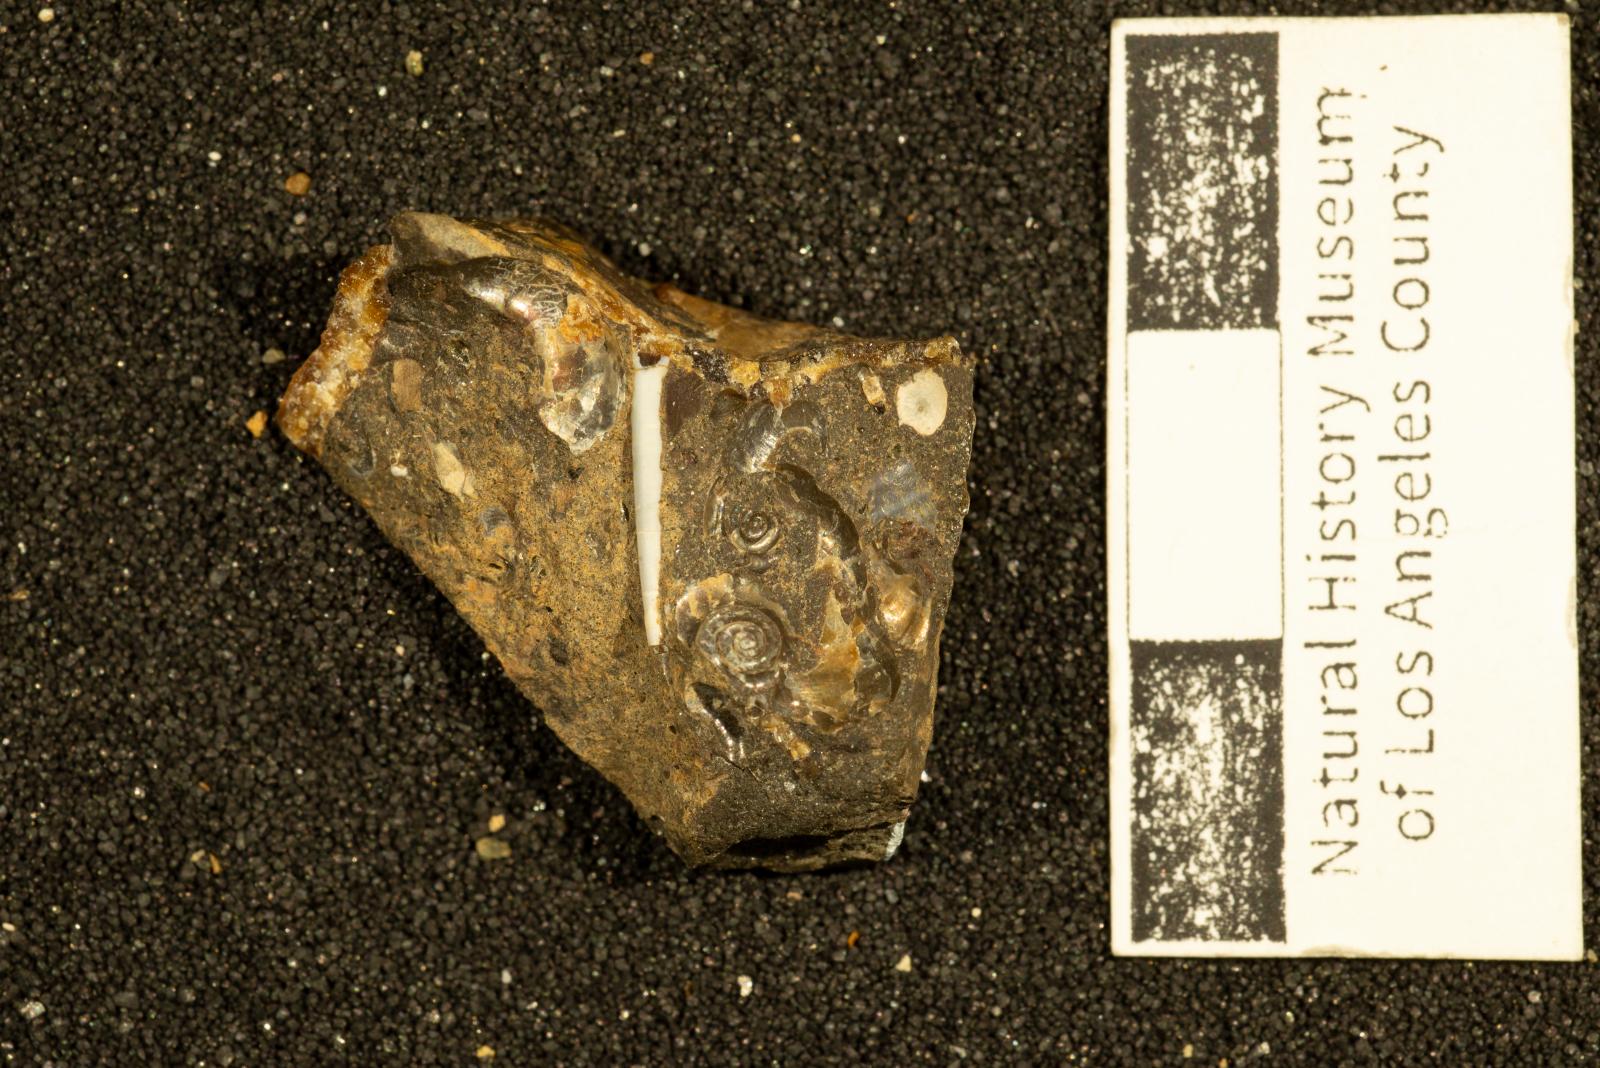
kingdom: Animalia
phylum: Mollusca
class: Scaphopoda
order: Dentaliida
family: Dentaliidae
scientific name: Dentaliidae
